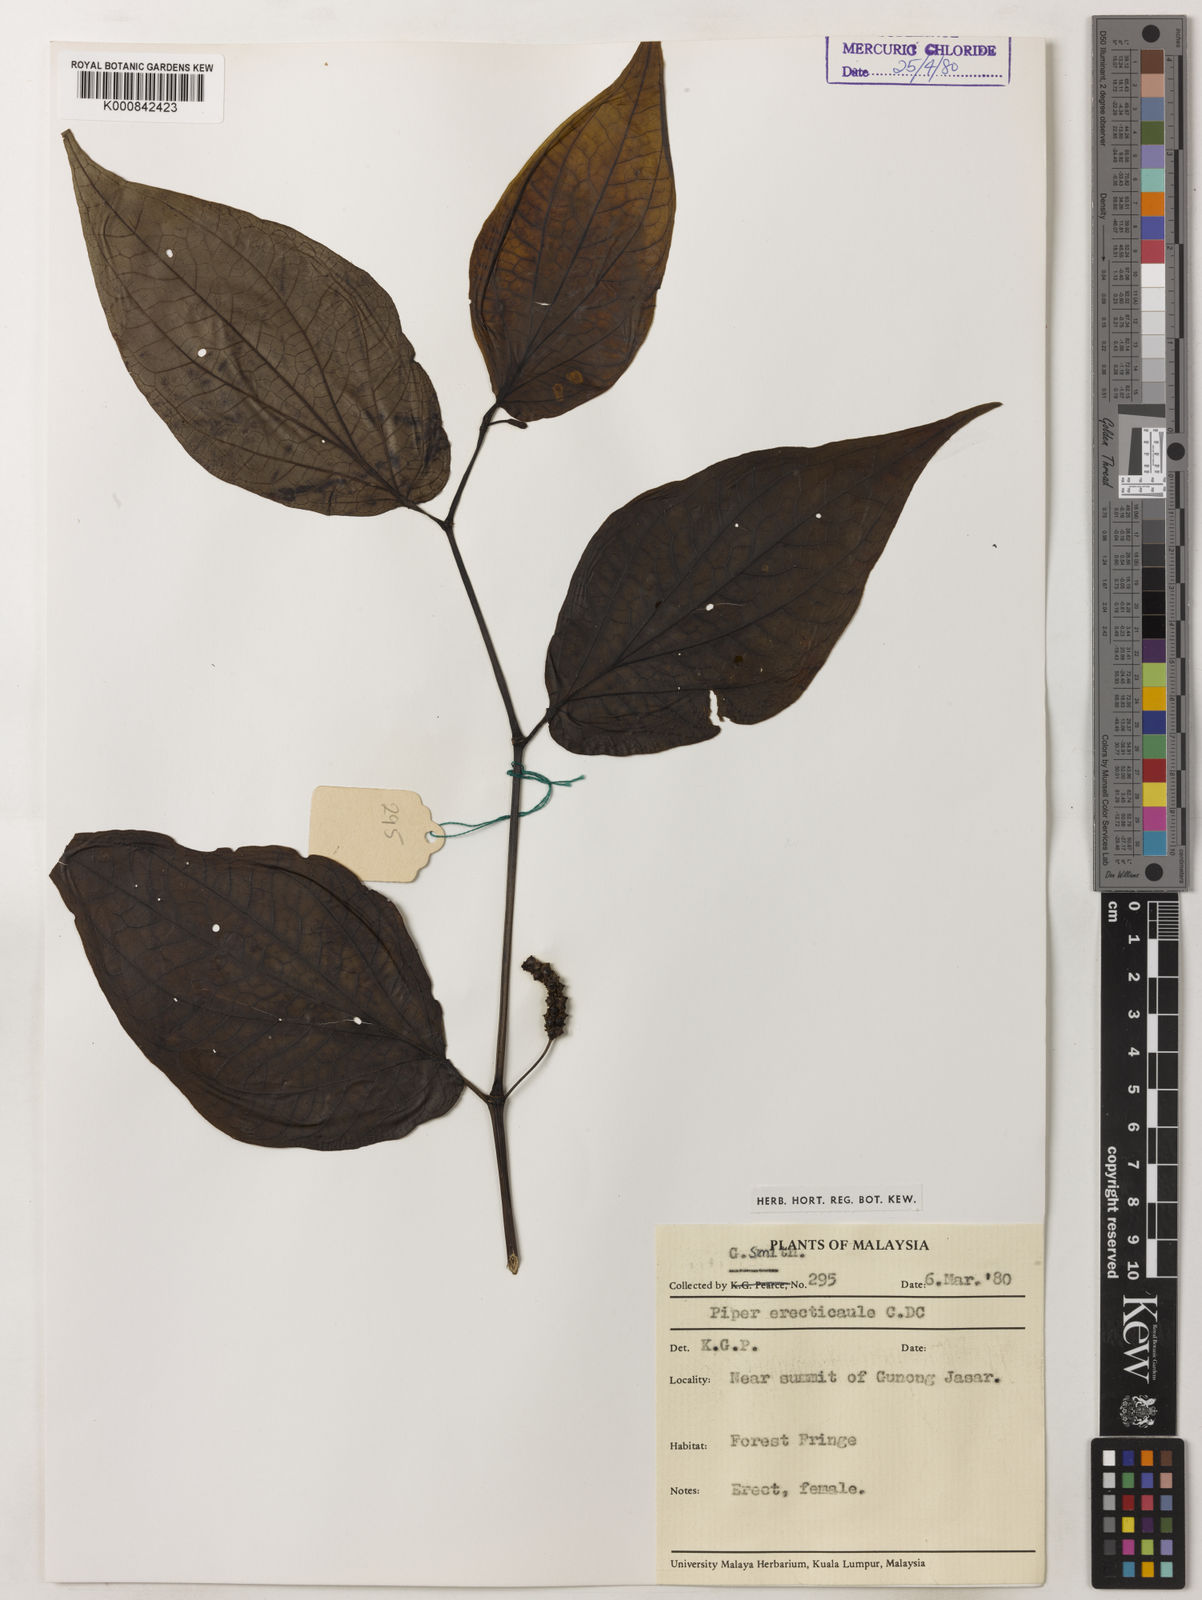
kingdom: Plantae
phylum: Tracheophyta
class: Magnoliopsida
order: Piperales
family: Piperaceae
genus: Piper
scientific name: Piper erecticaule
